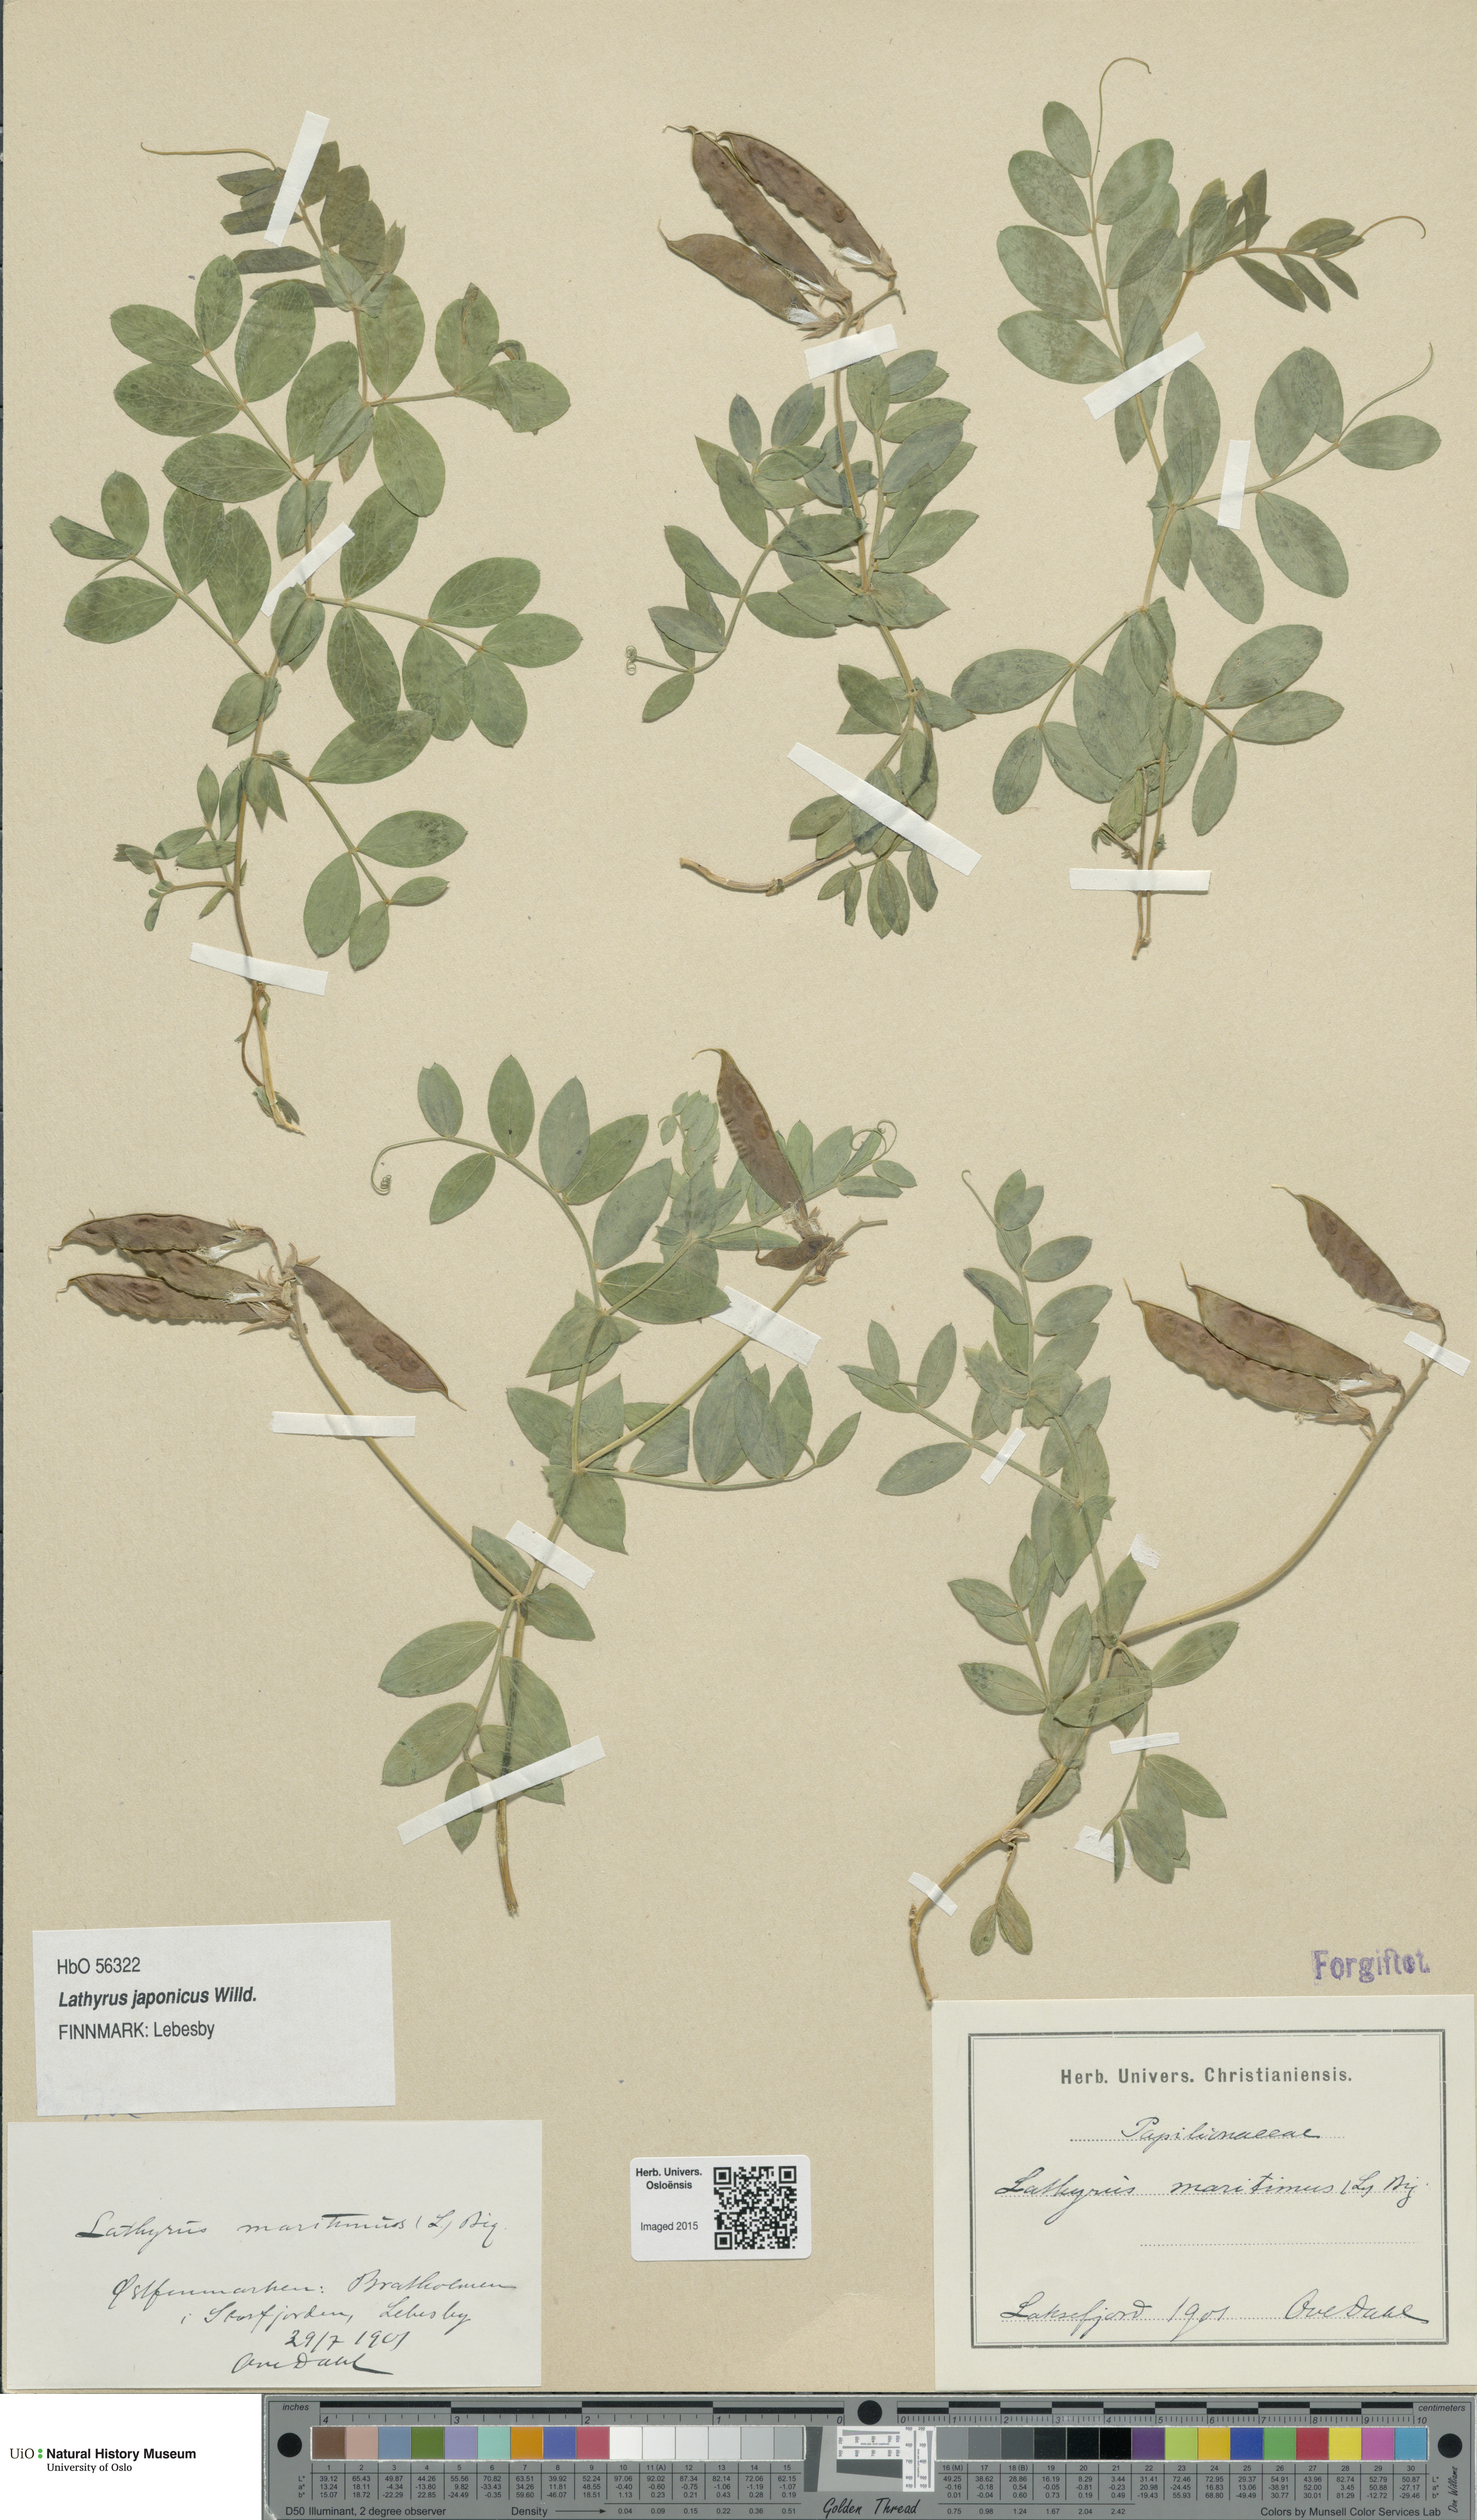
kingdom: Plantae
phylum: Tracheophyta
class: Magnoliopsida
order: Fabales
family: Fabaceae
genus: Lathyrus
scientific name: Lathyrus
